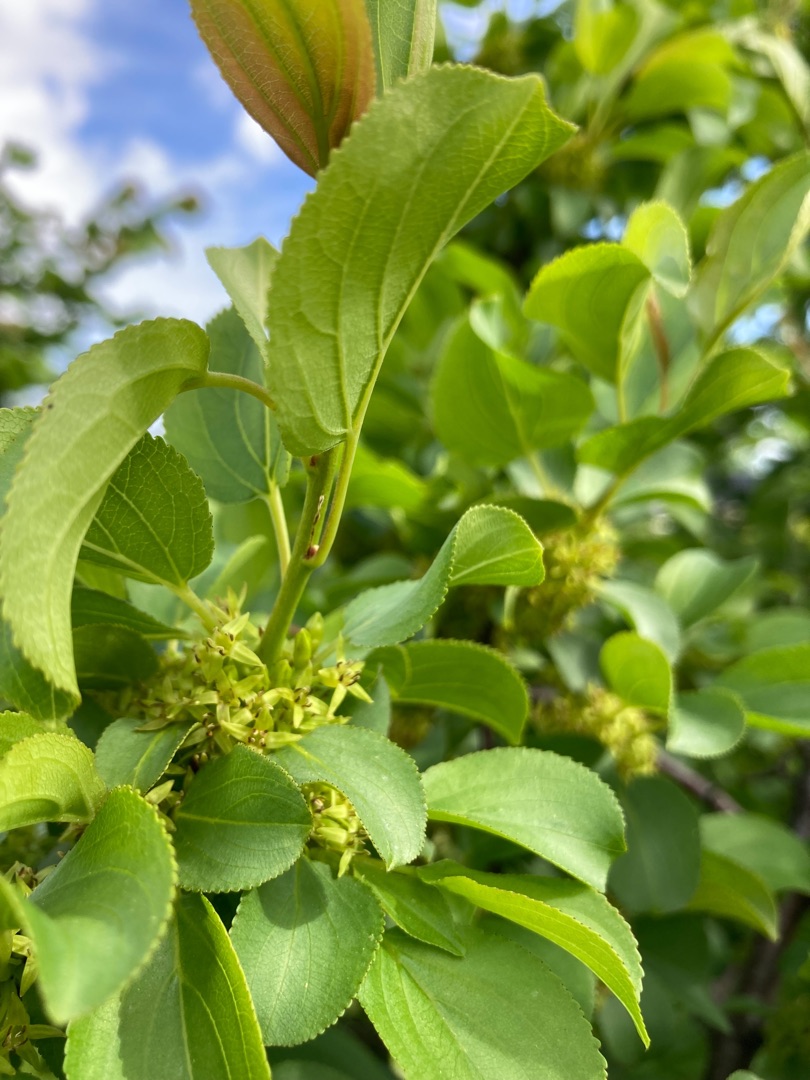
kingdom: Plantae
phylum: Tracheophyta
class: Magnoliopsida
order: Rosales
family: Rhamnaceae
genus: Rhamnus
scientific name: Rhamnus cathartica
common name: Vrietorn
